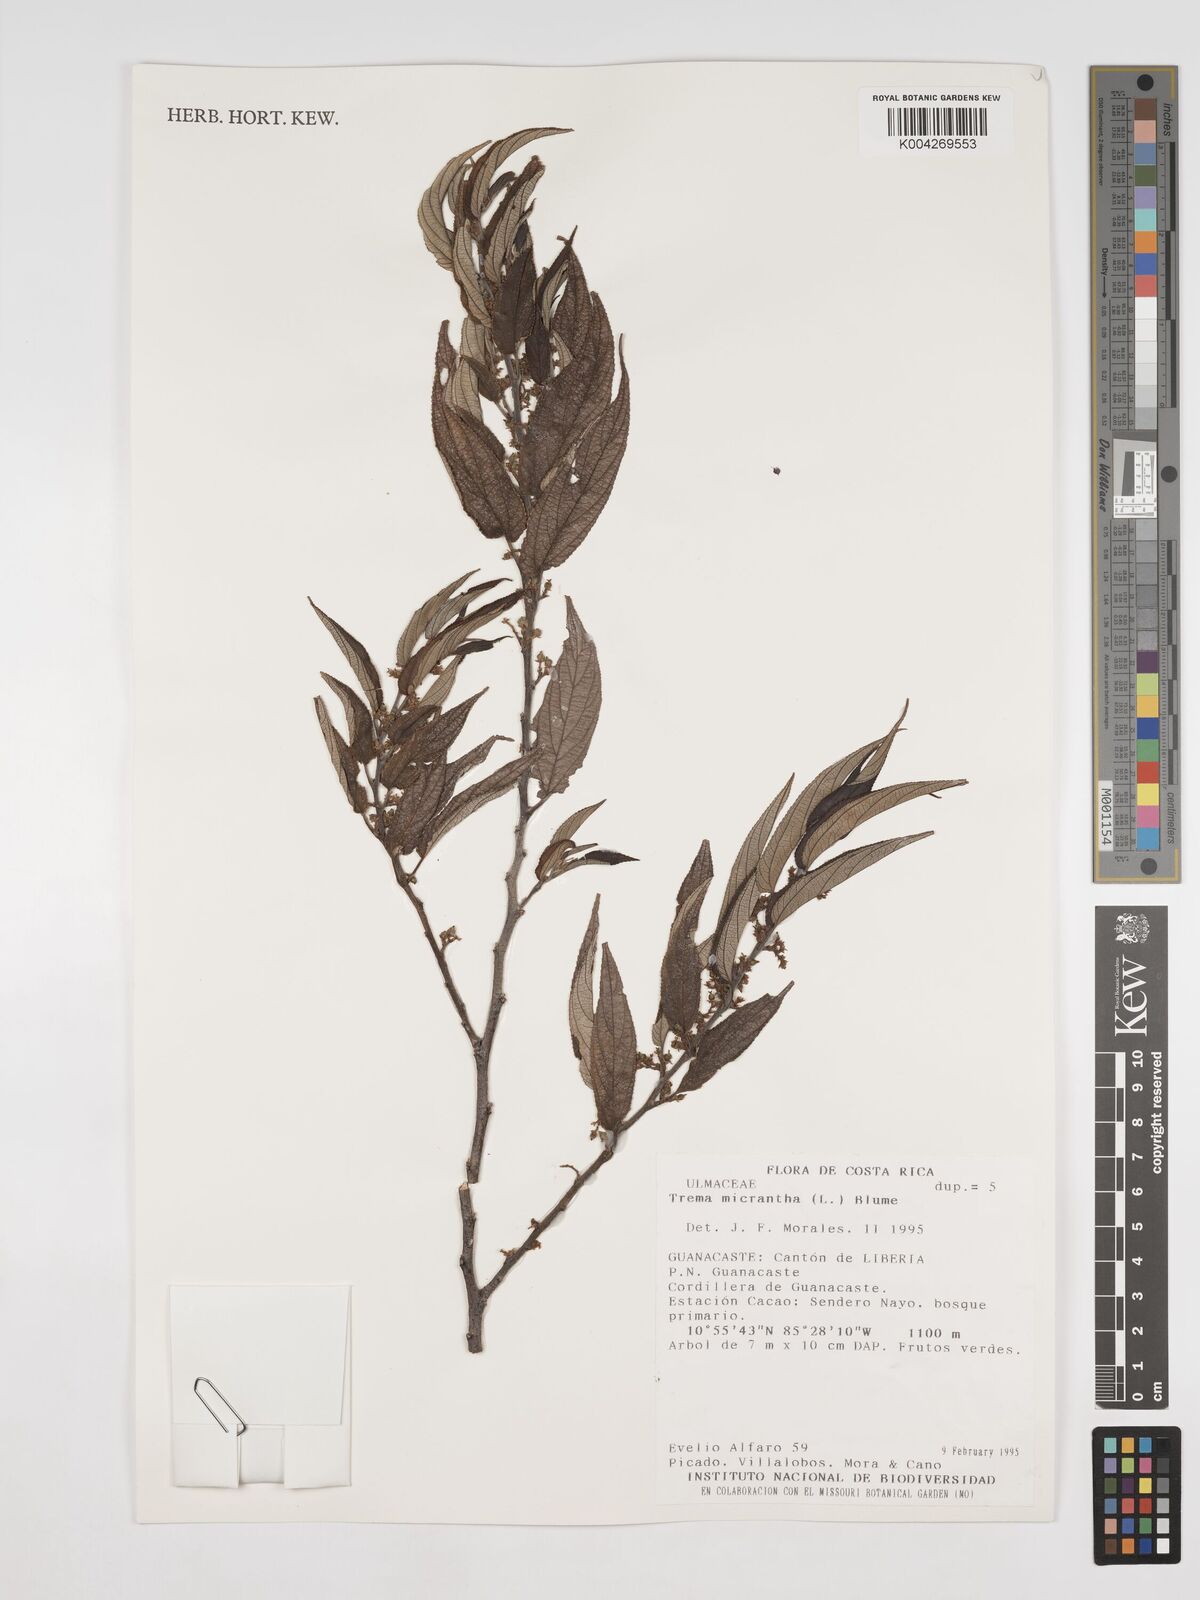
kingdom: Plantae
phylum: Tracheophyta
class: Magnoliopsida
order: Rosales
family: Cannabaceae
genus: Trema
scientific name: Trema micranthum
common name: Jamaican nettletree
